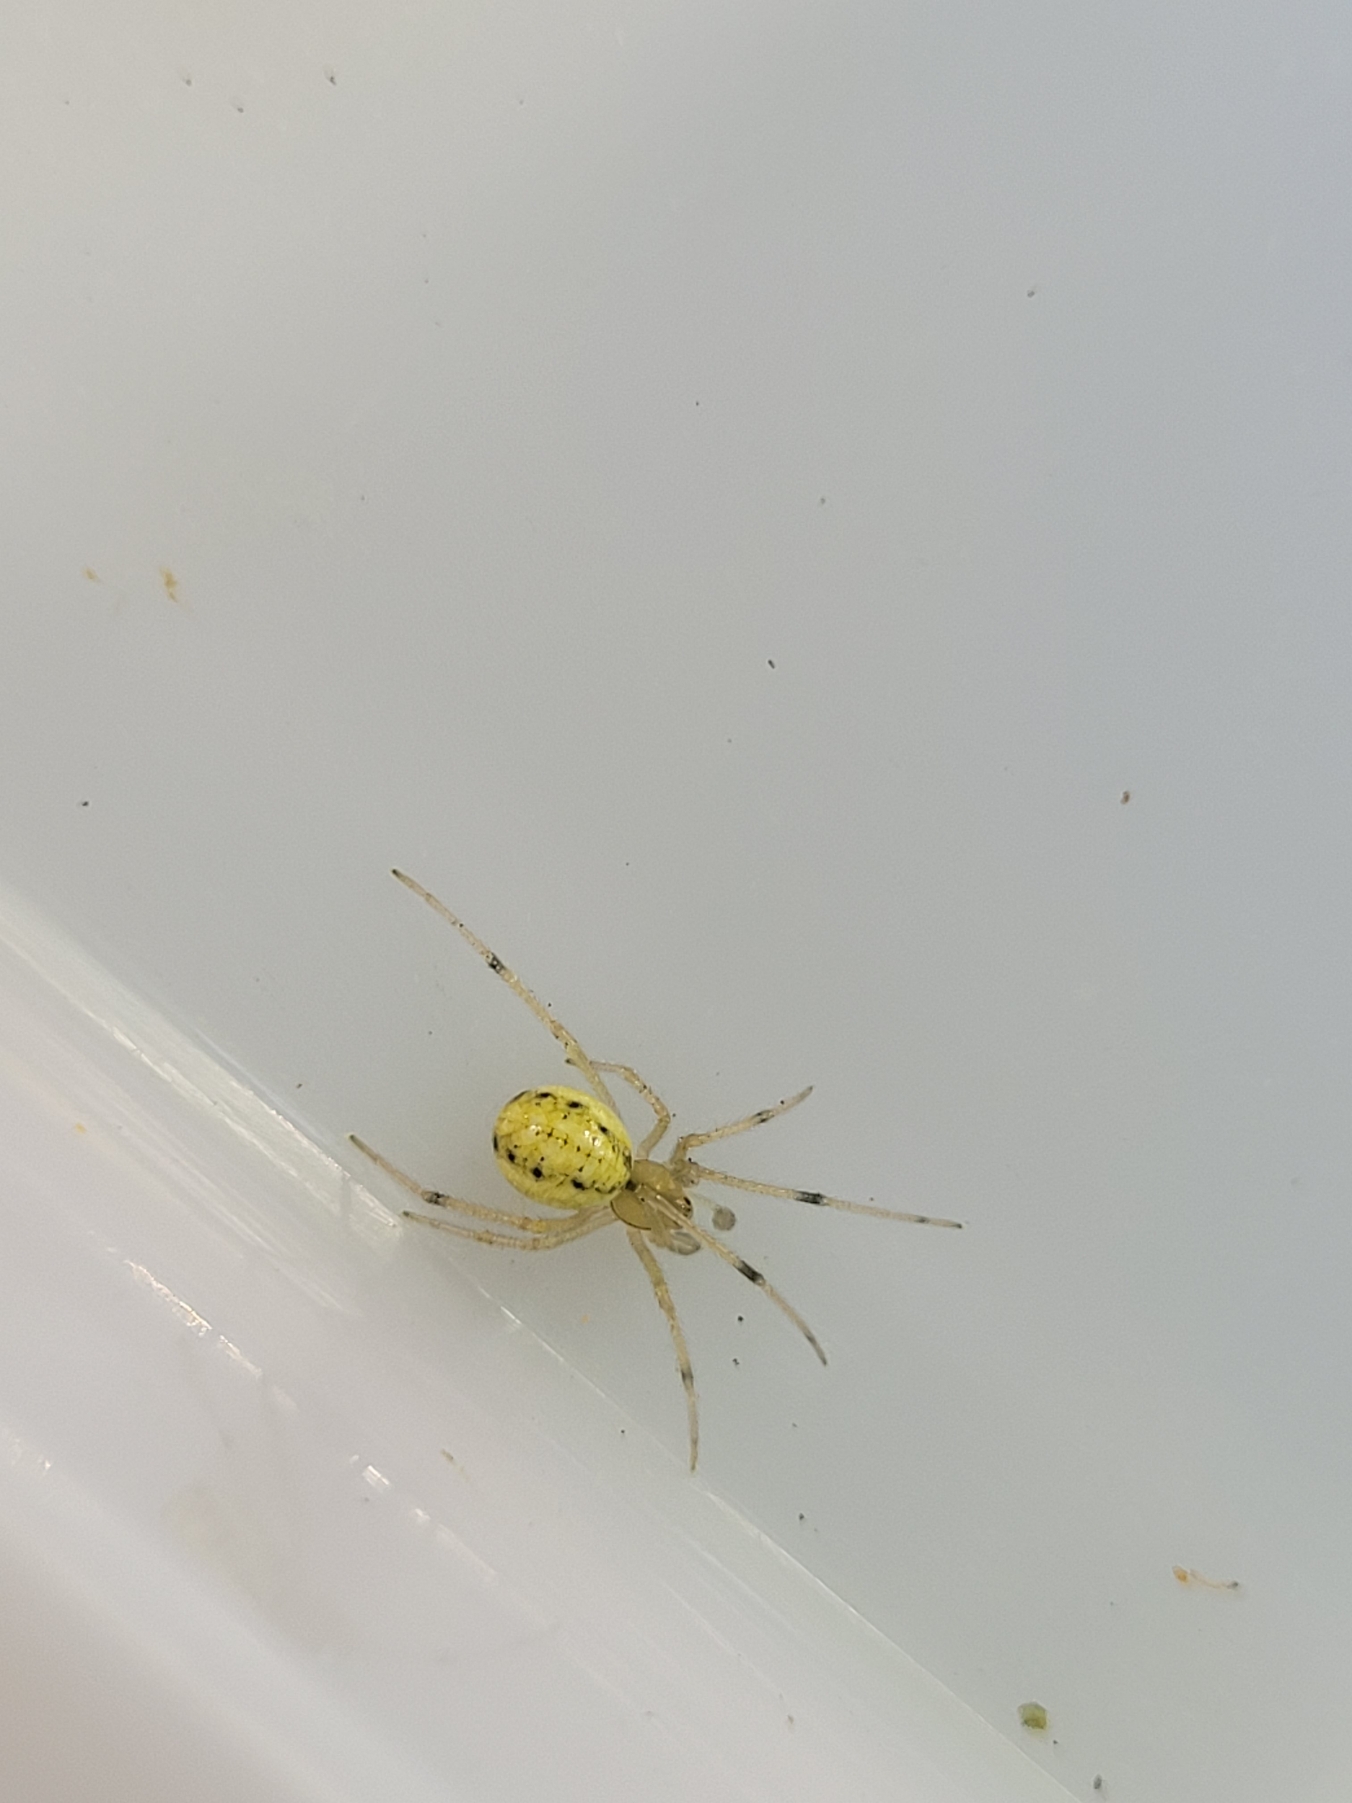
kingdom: Animalia
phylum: Arthropoda
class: Arachnida
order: Araneae
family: Theridiidae
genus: Enoplognatha
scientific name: Enoplognatha
